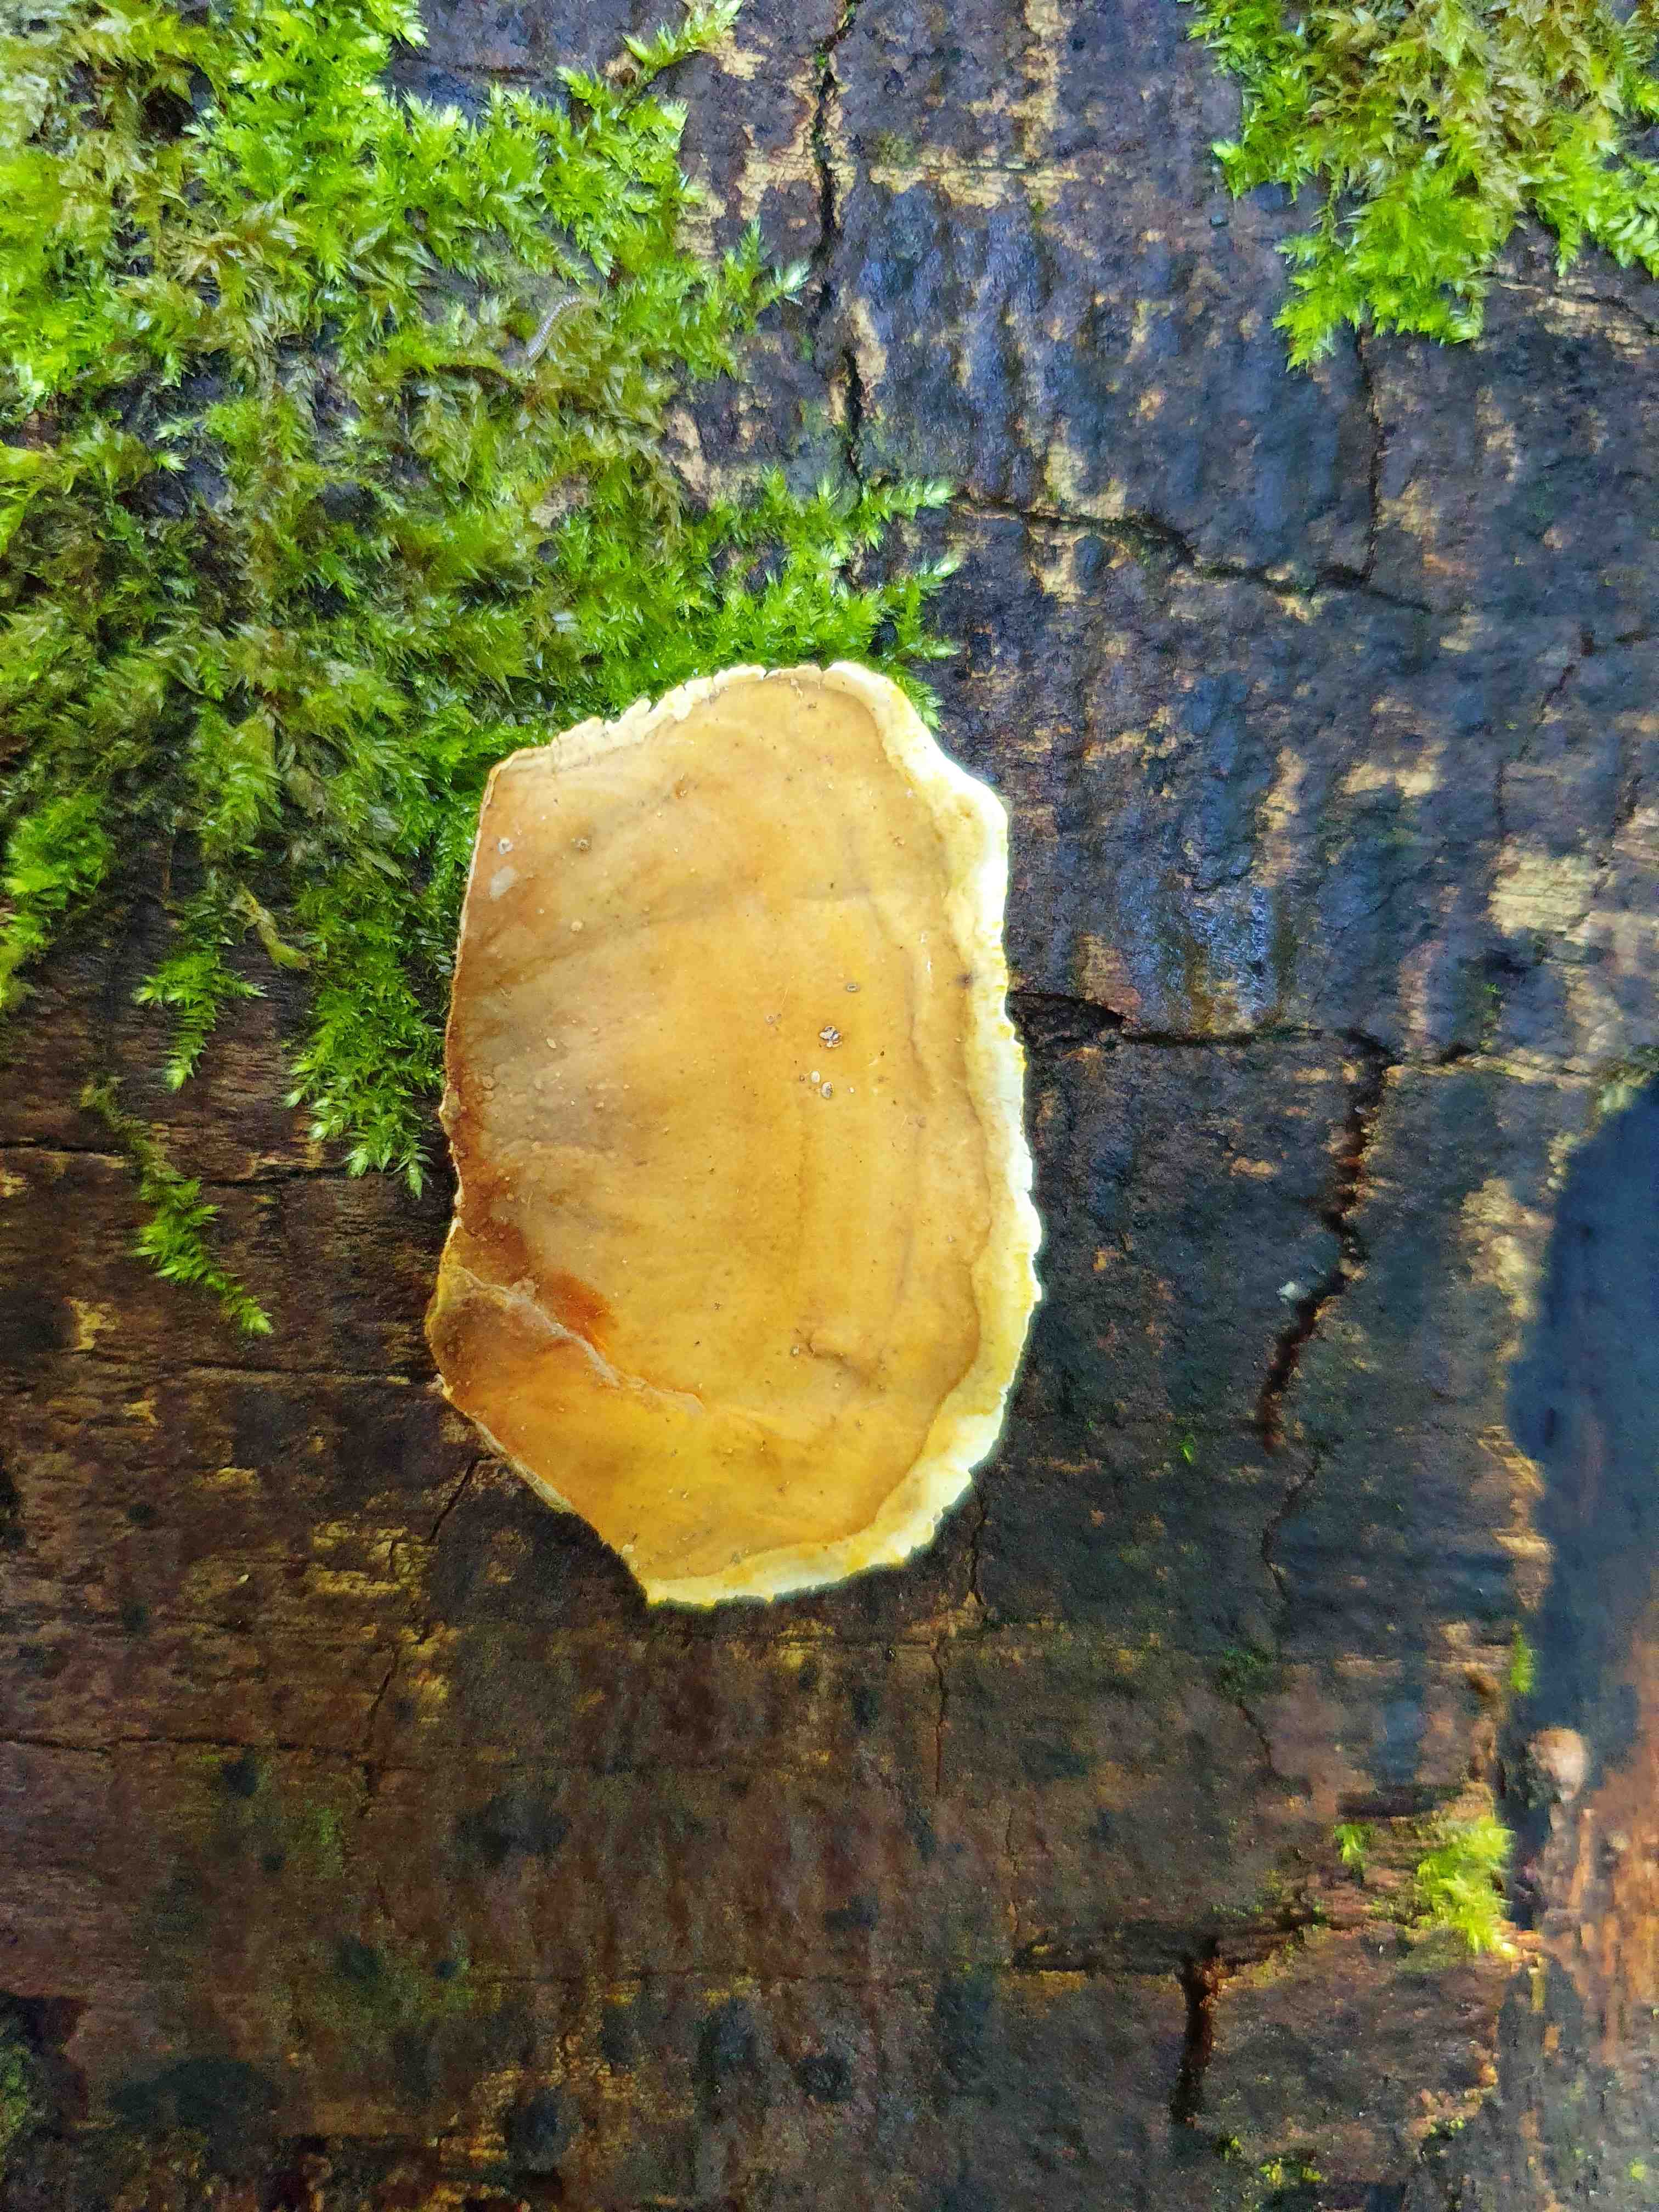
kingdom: Fungi
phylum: Basidiomycota
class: Agaricomycetes
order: Russulales
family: Stereaceae
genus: Stereum
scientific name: Stereum subtomentosum
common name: smuk lædersvamp
